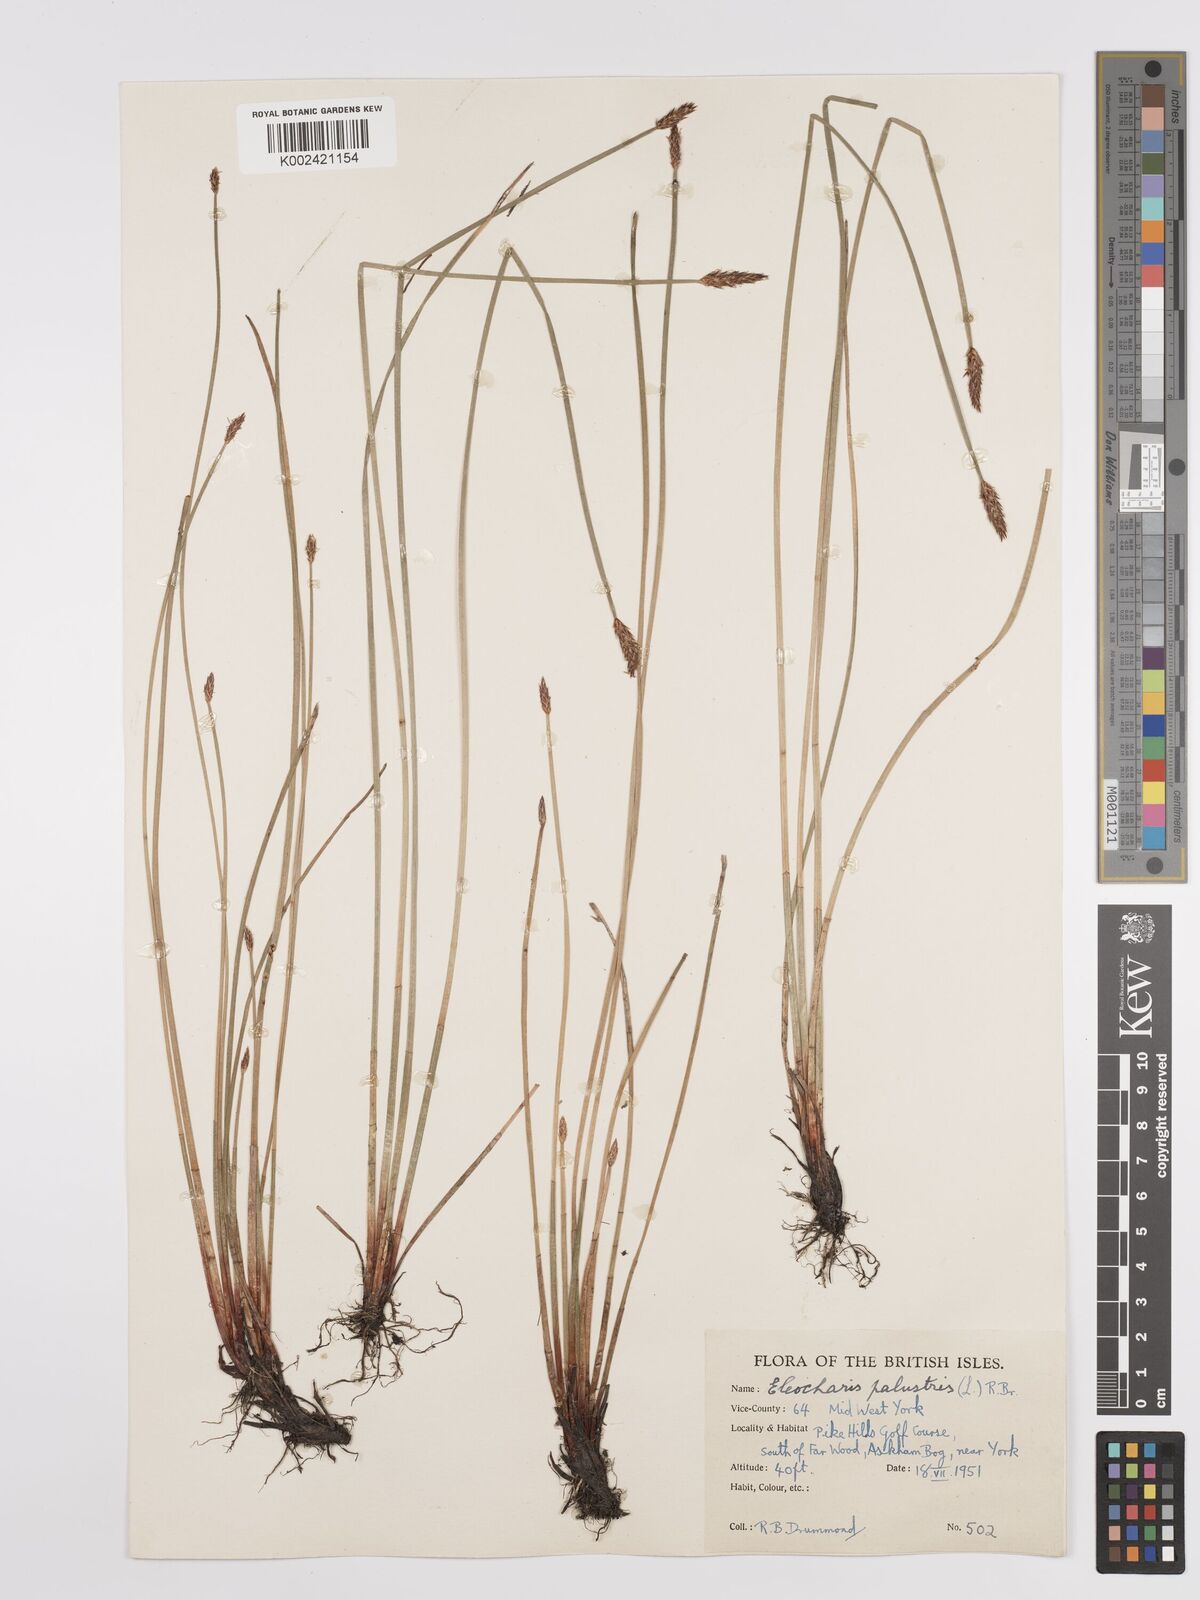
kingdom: Plantae
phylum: Tracheophyta
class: Liliopsida
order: Poales
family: Cyperaceae
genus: Eleocharis
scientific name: Eleocharis palustris
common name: Common spike-rush
